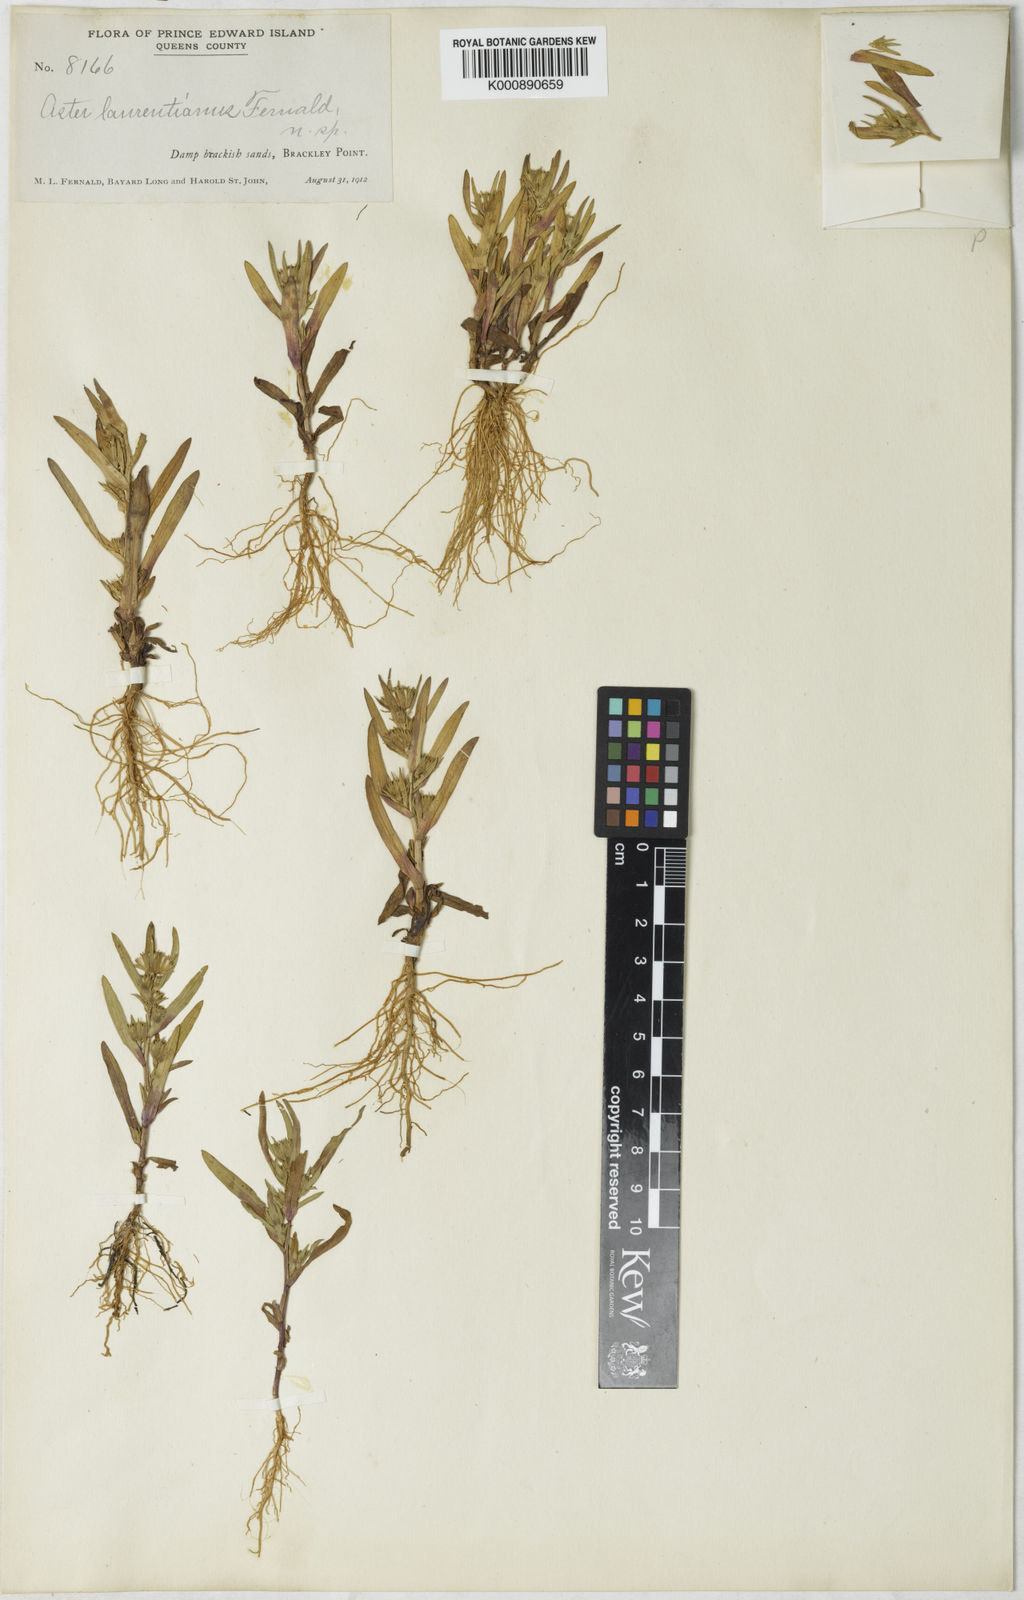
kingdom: Plantae
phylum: Tracheophyta
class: Magnoliopsida
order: Asterales
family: Asteraceae
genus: Symphyotrichum
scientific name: Symphyotrichum laurentianum
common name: St. lawrence annual aster
